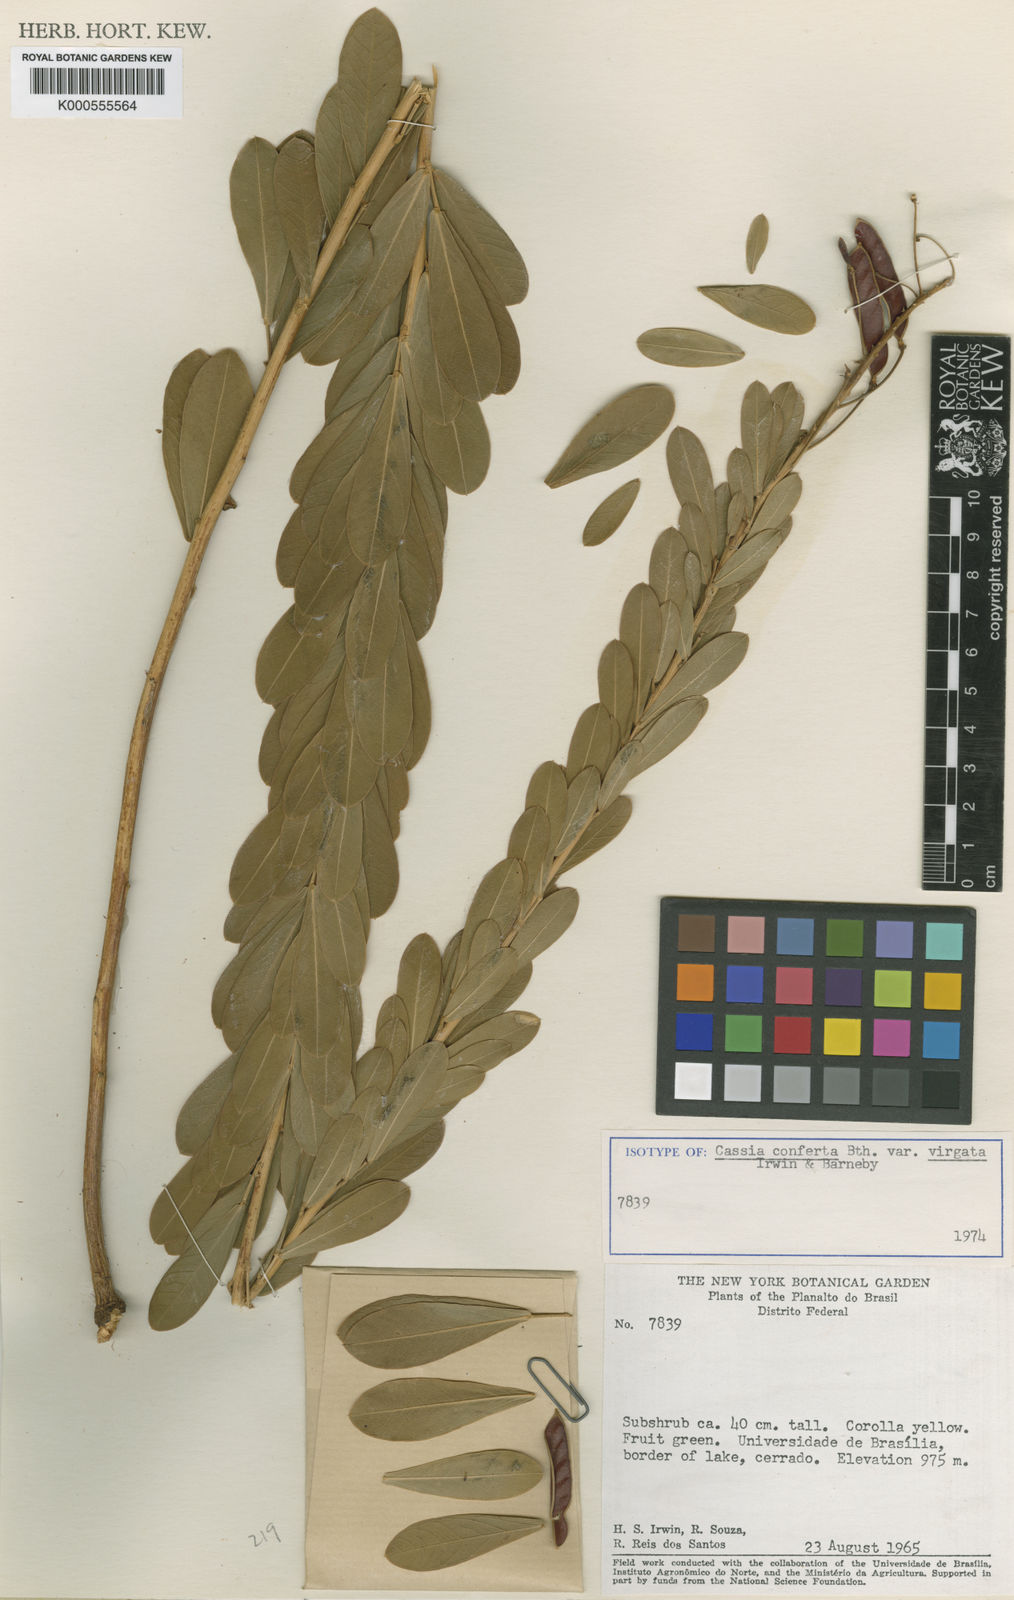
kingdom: Plantae
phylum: Tracheophyta
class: Magnoliopsida
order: Fabales
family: Fabaceae
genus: Chamaecrista
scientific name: Chamaecrista conferta
